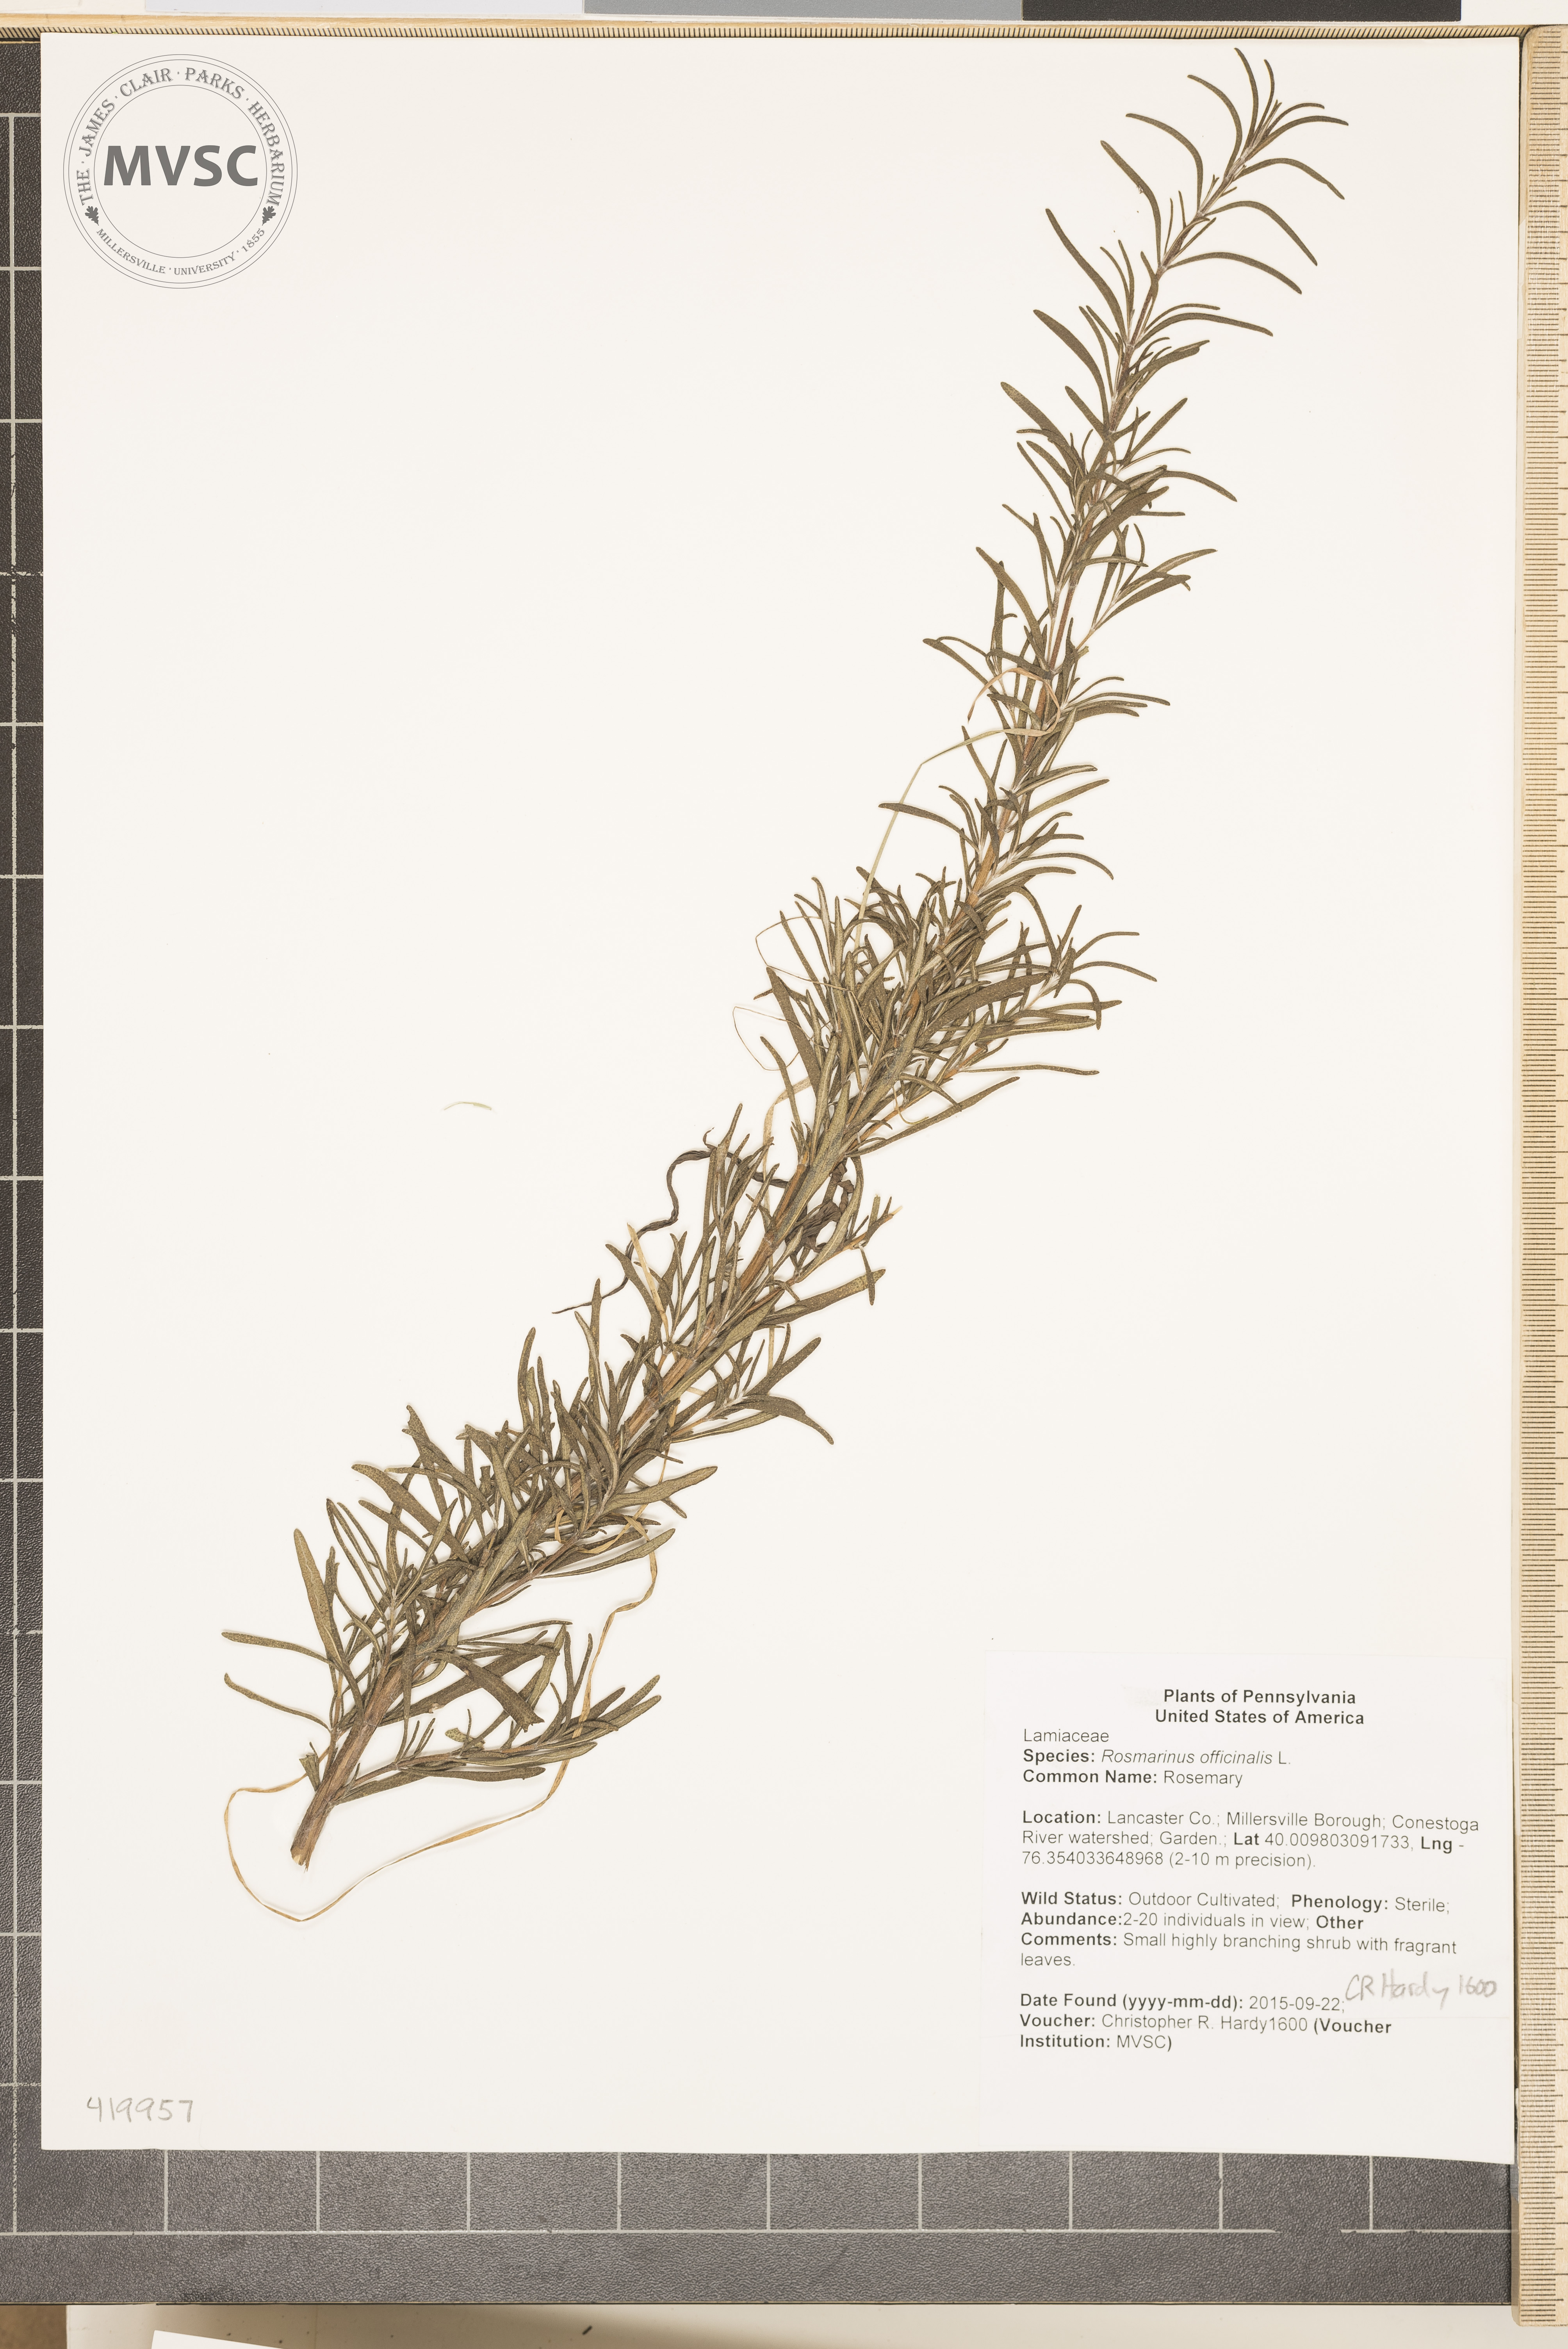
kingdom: Plantae
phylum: Tracheophyta
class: Magnoliopsida
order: Lamiales
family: Lamiaceae
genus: Salvia
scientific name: Salvia rosmarinus
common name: Rosemary
